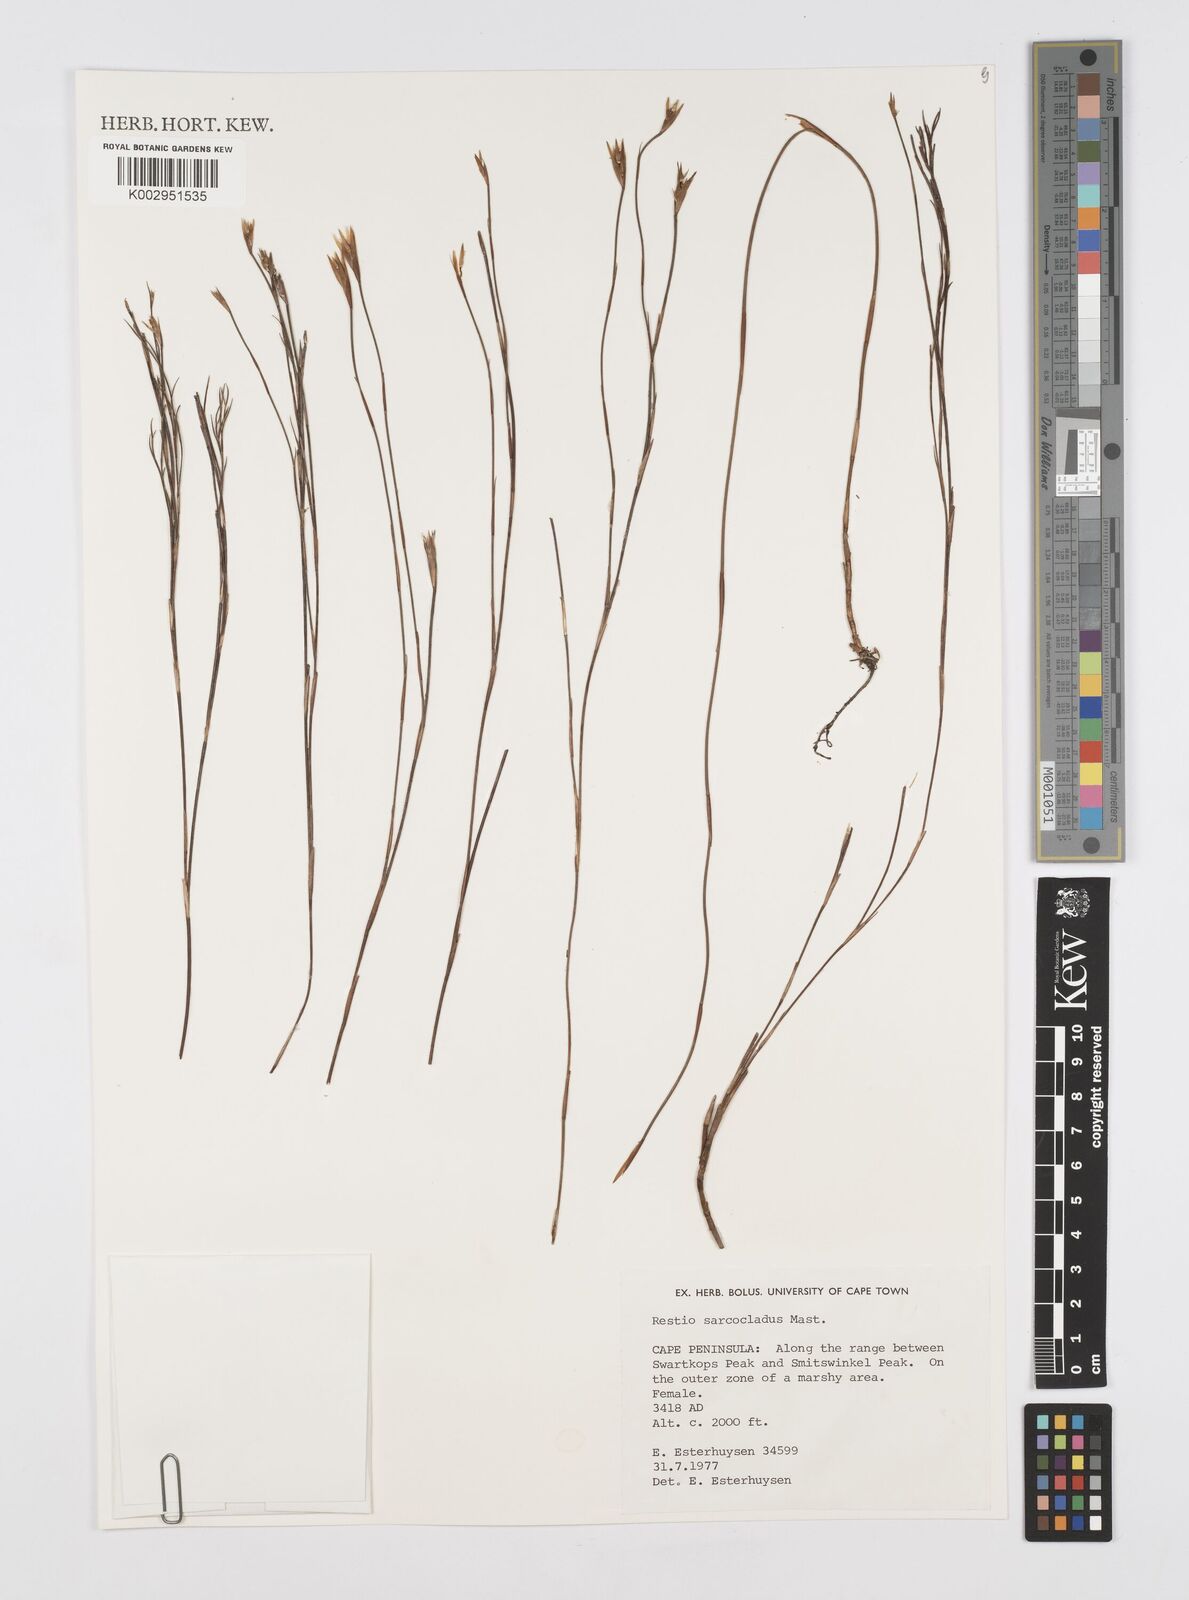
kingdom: Plantae
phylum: Tracheophyta
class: Liliopsida
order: Poales
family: Restionaceae
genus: Restio
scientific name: Restio saroclados
